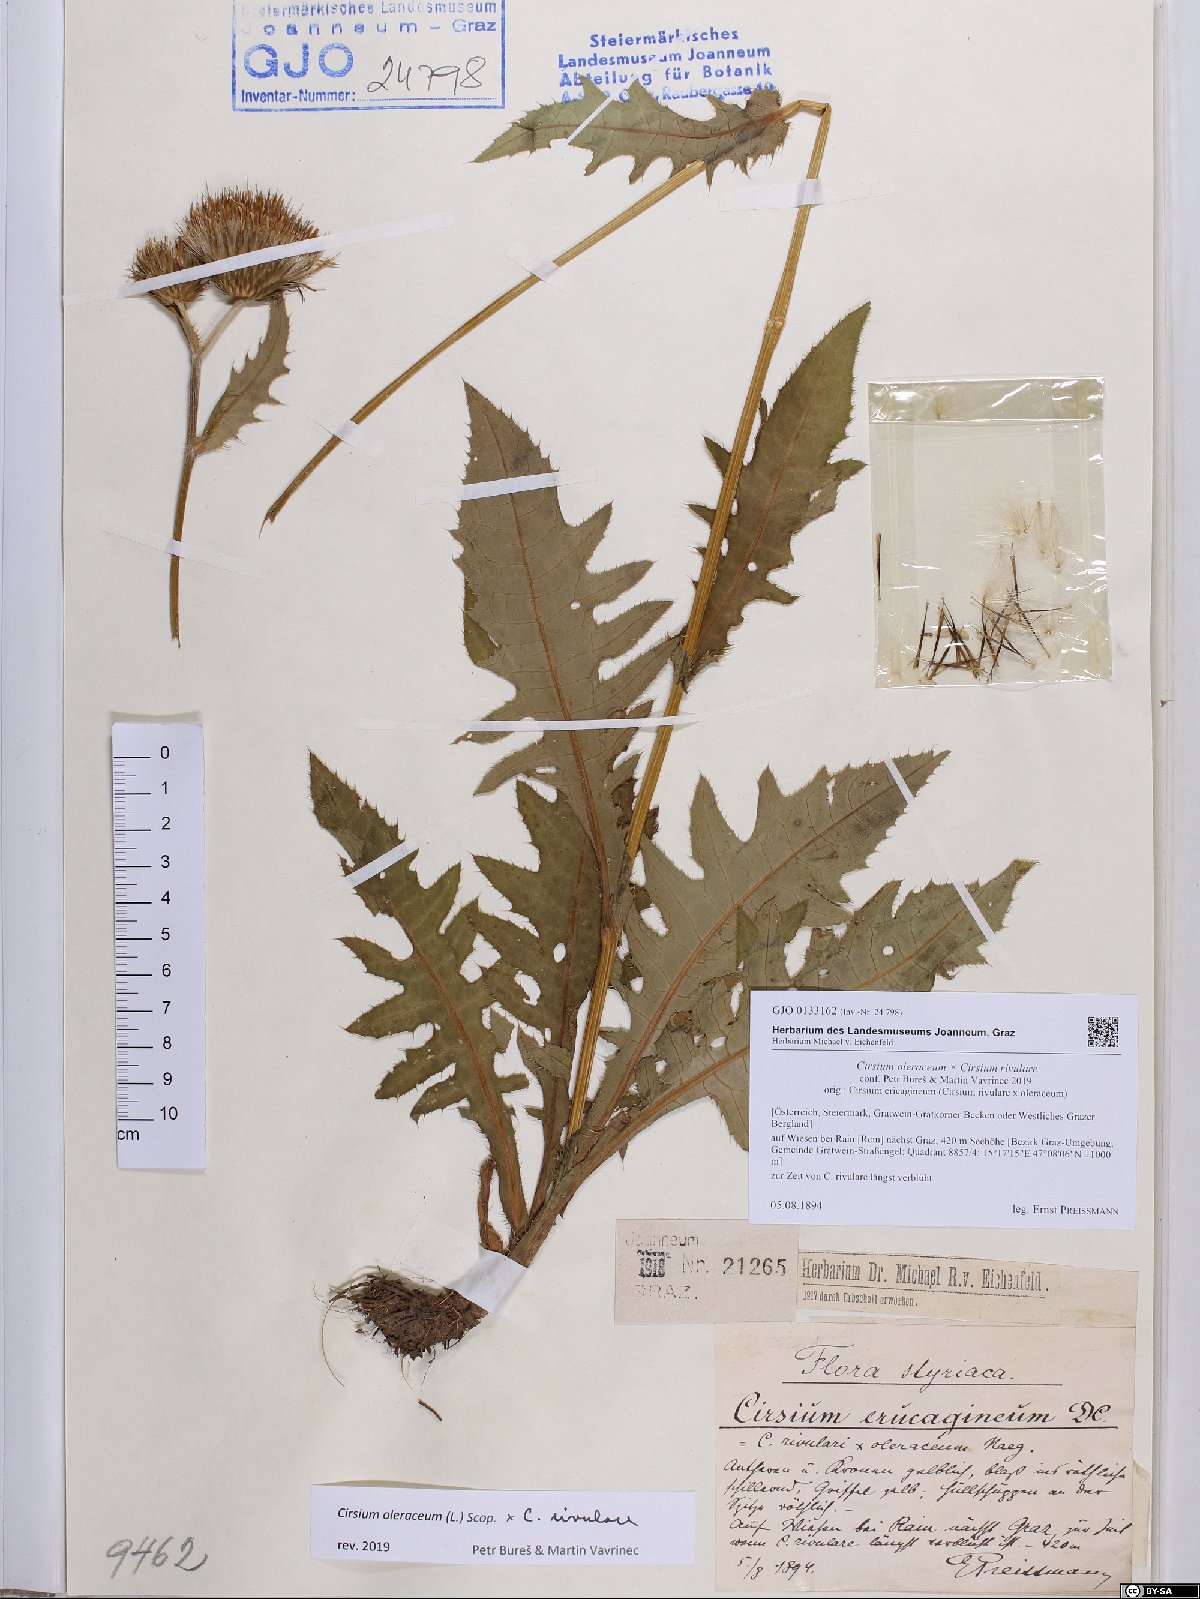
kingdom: Plantae
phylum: Tracheophyta
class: Magnoliopsida
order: Asterales
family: Asteraceae
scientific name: Asteraceae
